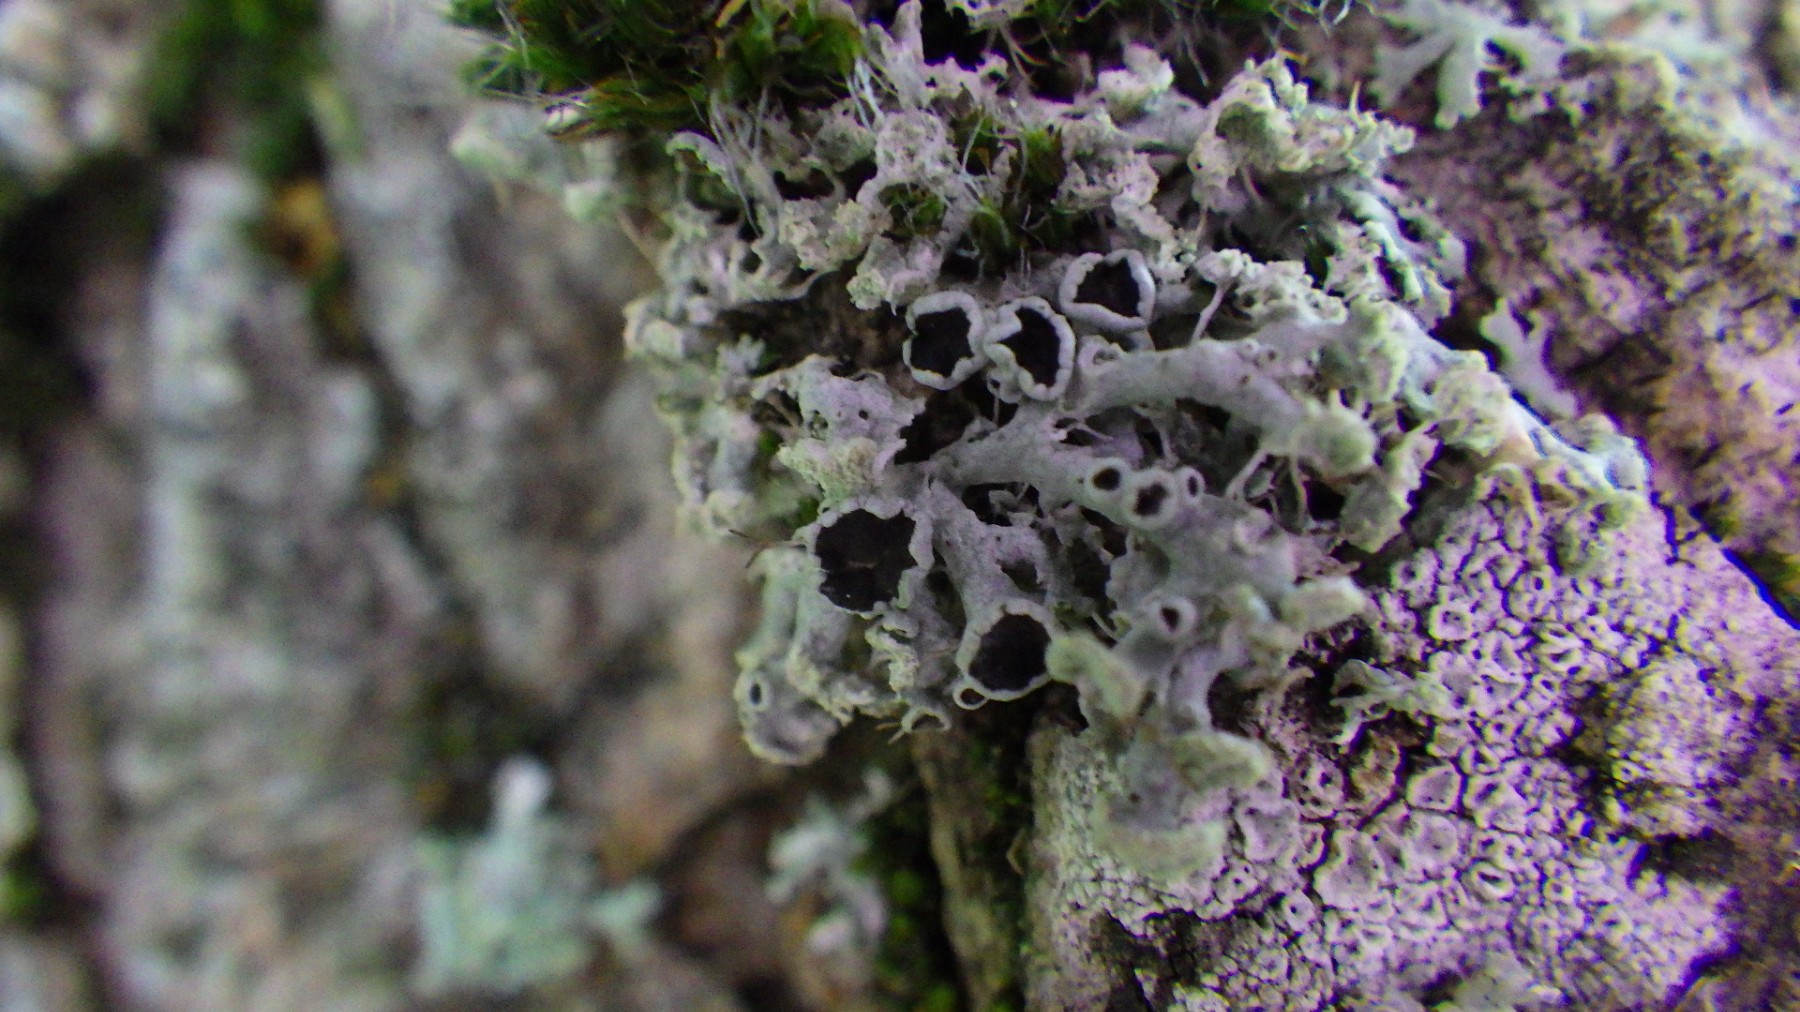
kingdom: Fungi
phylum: Ascomycota
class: Lecanoromycetes
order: Caliciales
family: Physciaceae
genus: Physcia
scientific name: Physcia tenella
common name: spæd rosetlav
